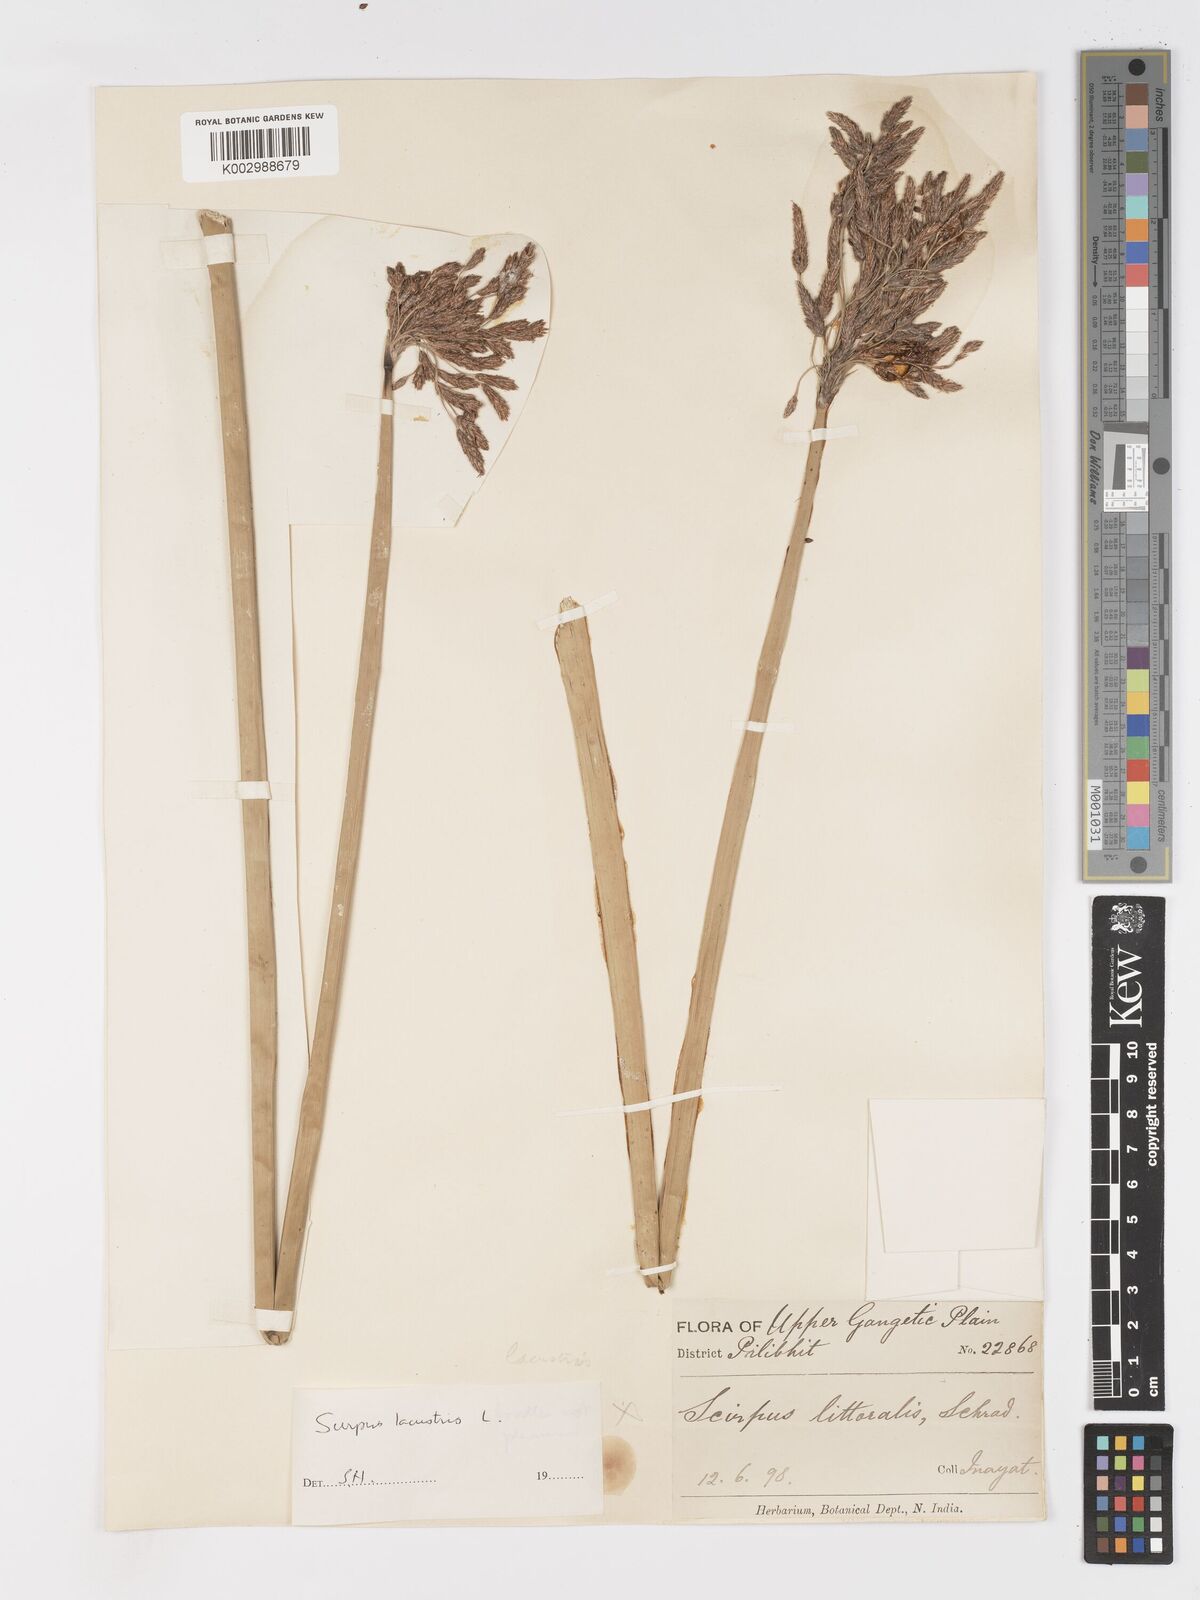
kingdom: Plantae
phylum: Tracheophyta
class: Liliopsida
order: Poales
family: Cyperaceae
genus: Schoenoplectus
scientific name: Schoenoplectus lacustris
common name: Common club-rush
